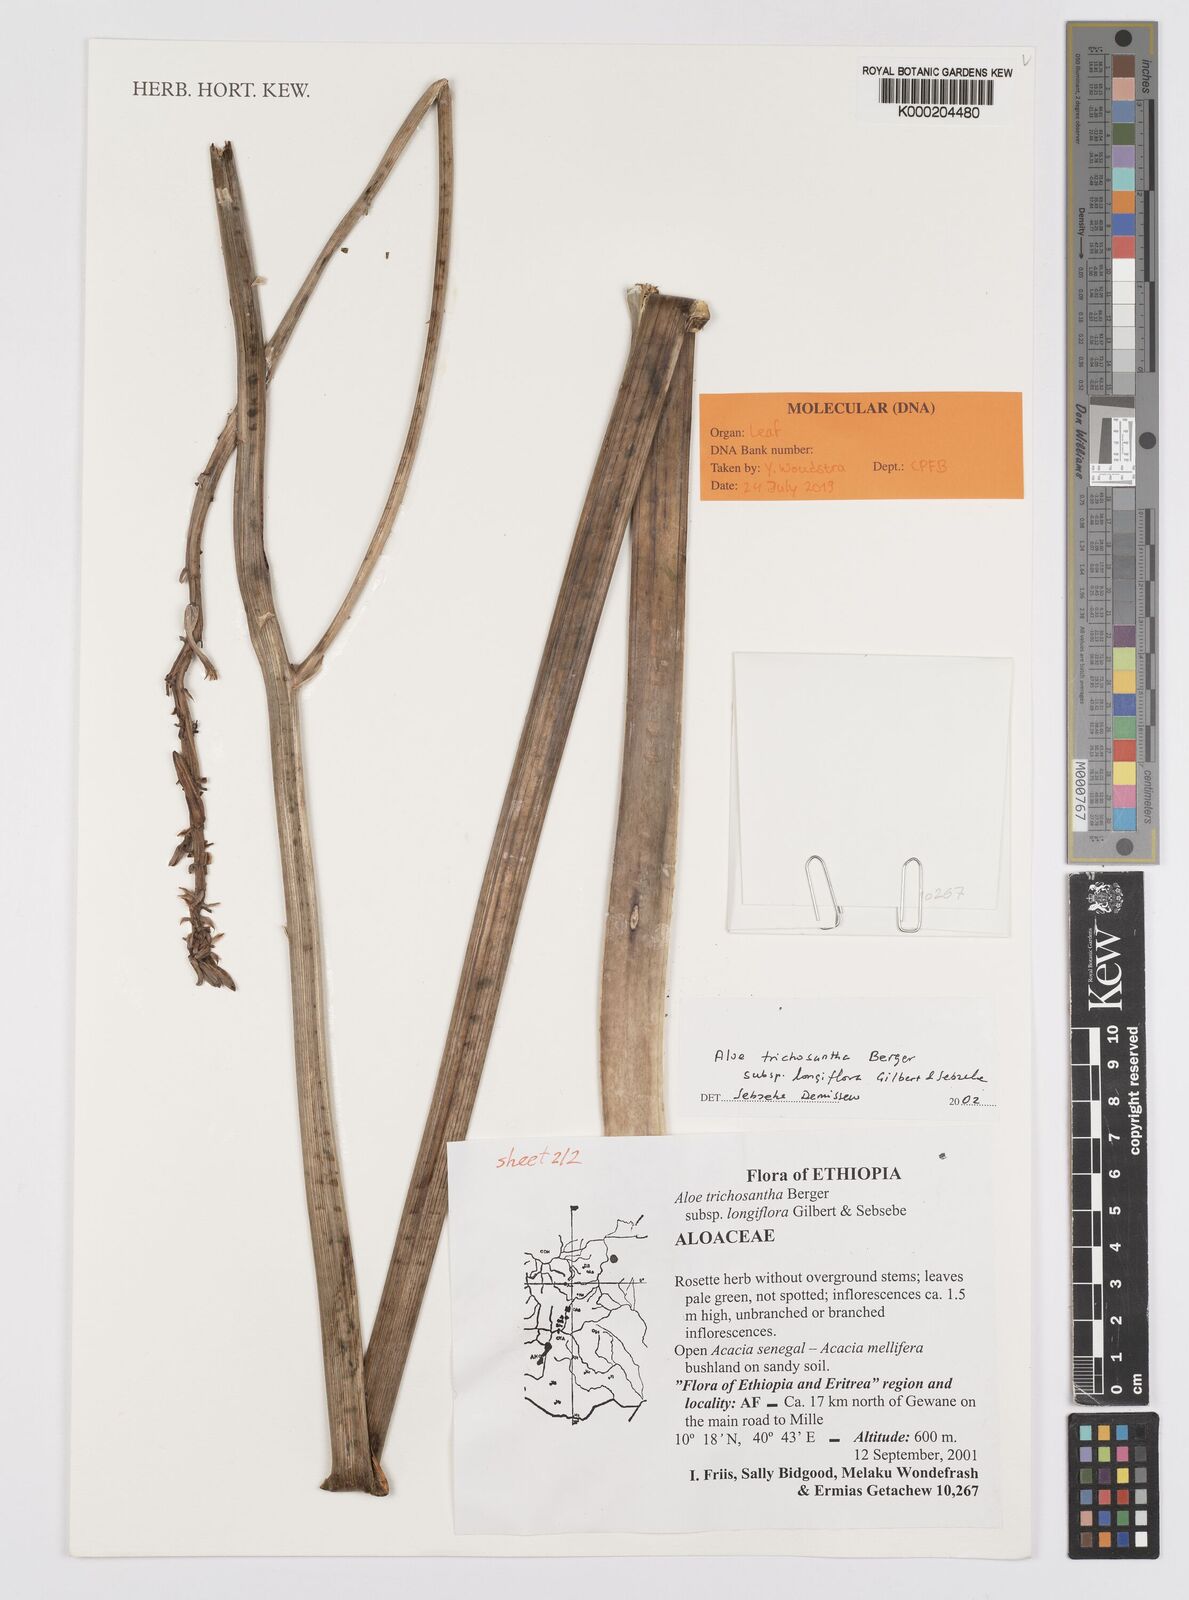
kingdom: Plantae
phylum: Tracheophyta
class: Liliopsida
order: Asparagales
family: Asphodelaceae
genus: Aloe
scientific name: Aloe trichosantha
